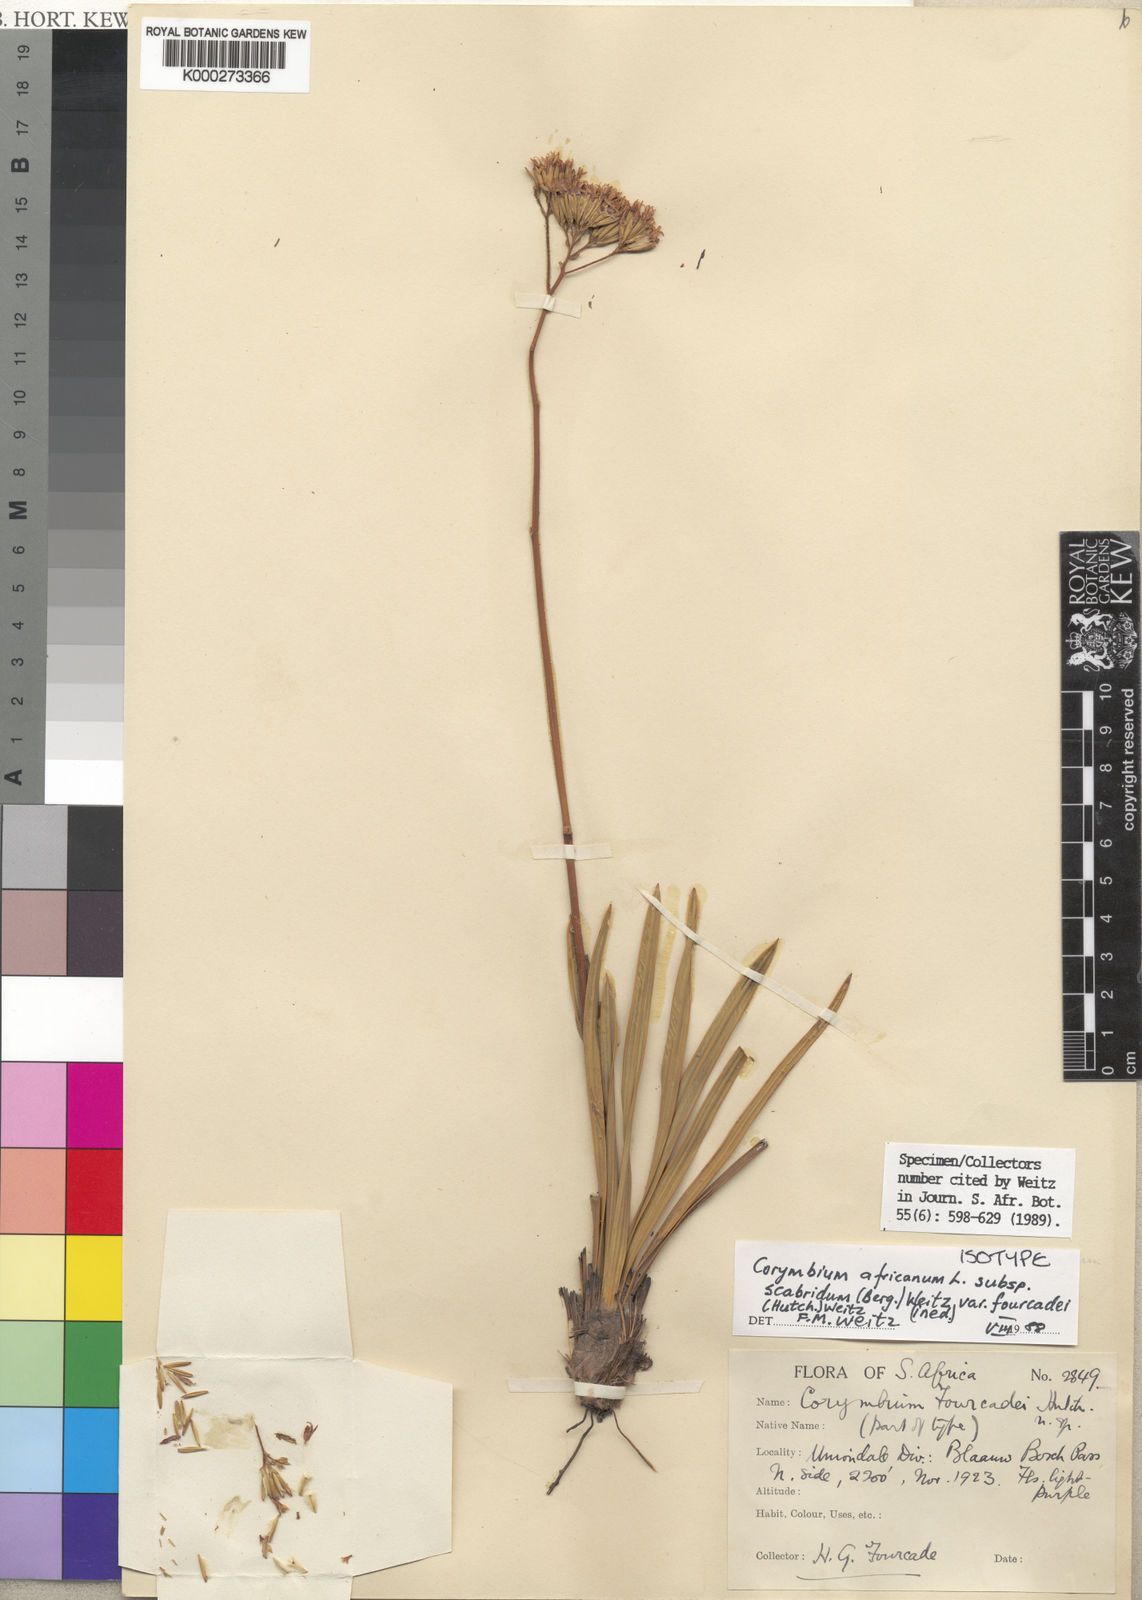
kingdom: Plantae
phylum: Tracheophyta
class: Magnoliopsida
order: Asterales
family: Asteraceae
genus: Corymbium
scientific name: Corymbium africanum
